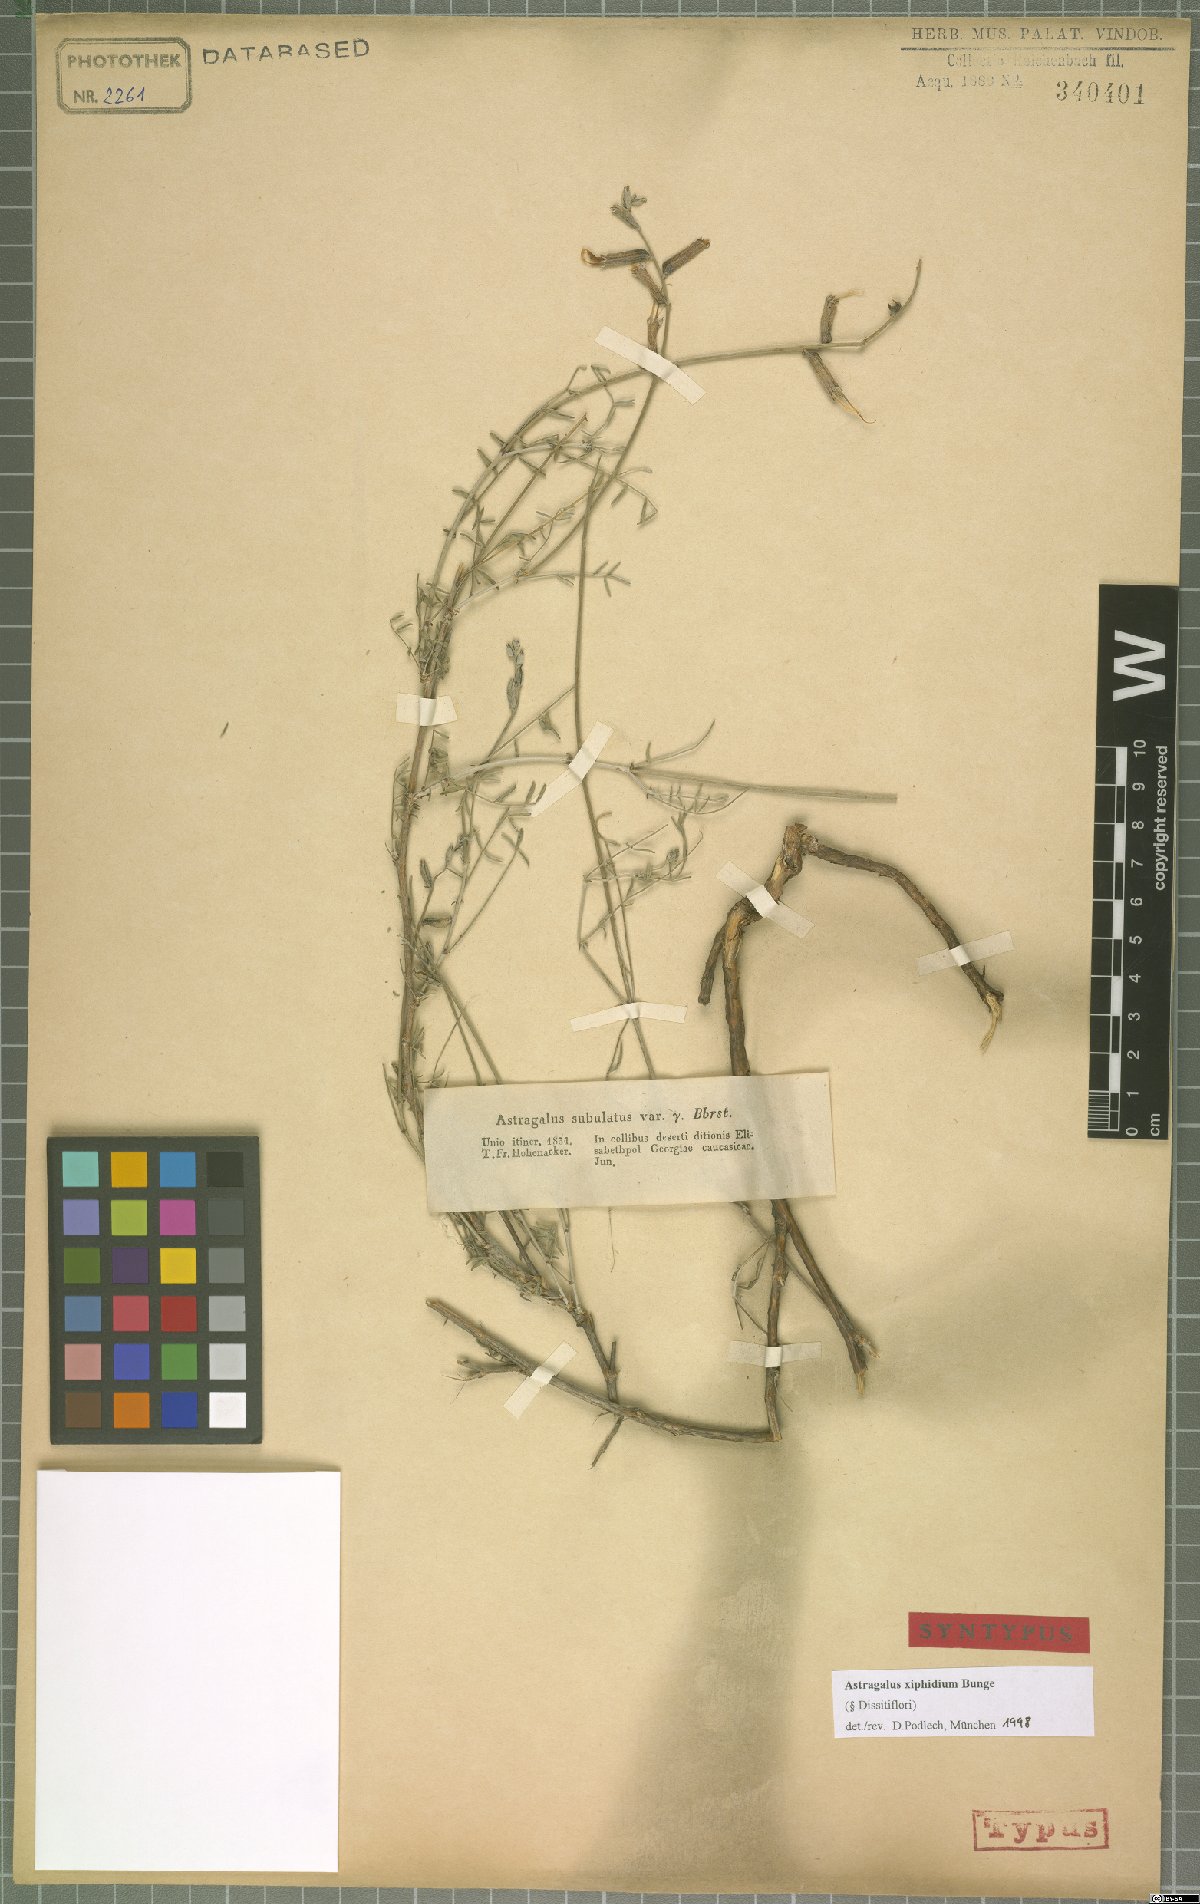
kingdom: Plantae
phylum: Tracheophyta
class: Magnoliopsida
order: Fabales
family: Fabaceae
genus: Astragalus
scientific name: Astragalus xiphidium
